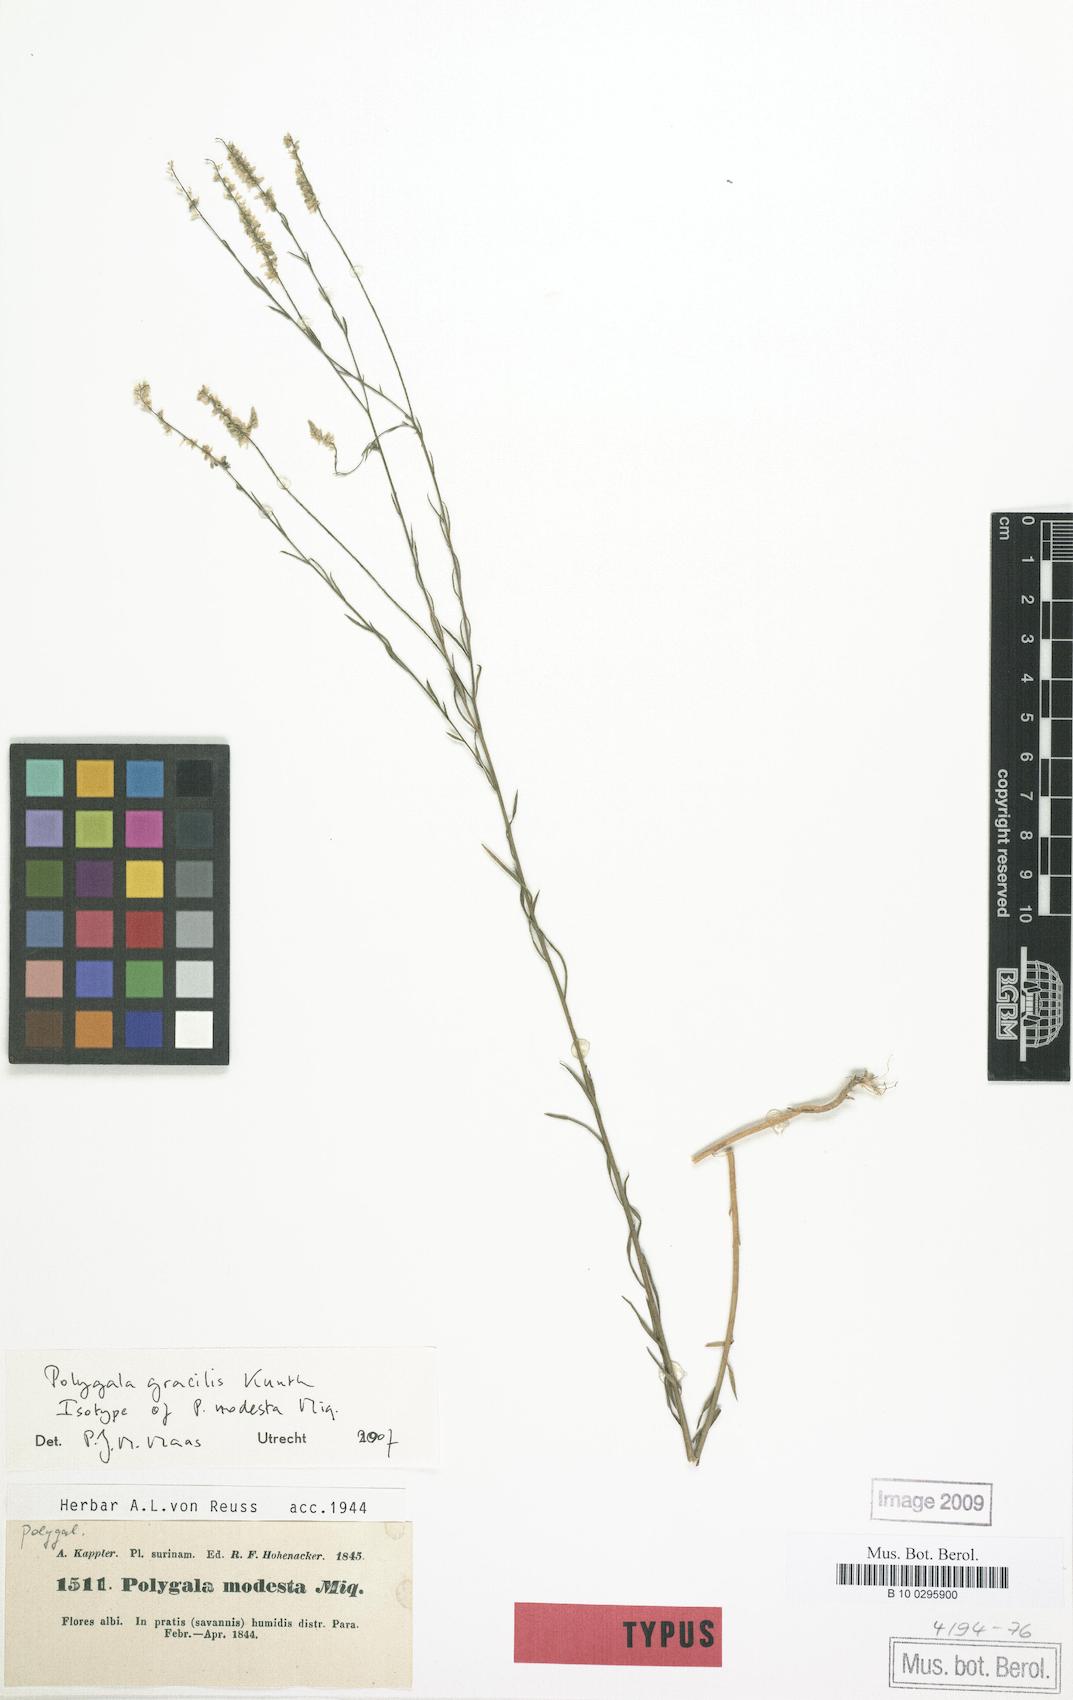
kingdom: Plantae
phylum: Tracheophyta
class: Magnoliopsida
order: Fabales
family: Polygalaceae
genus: Polygala
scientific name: Polygala tenella
